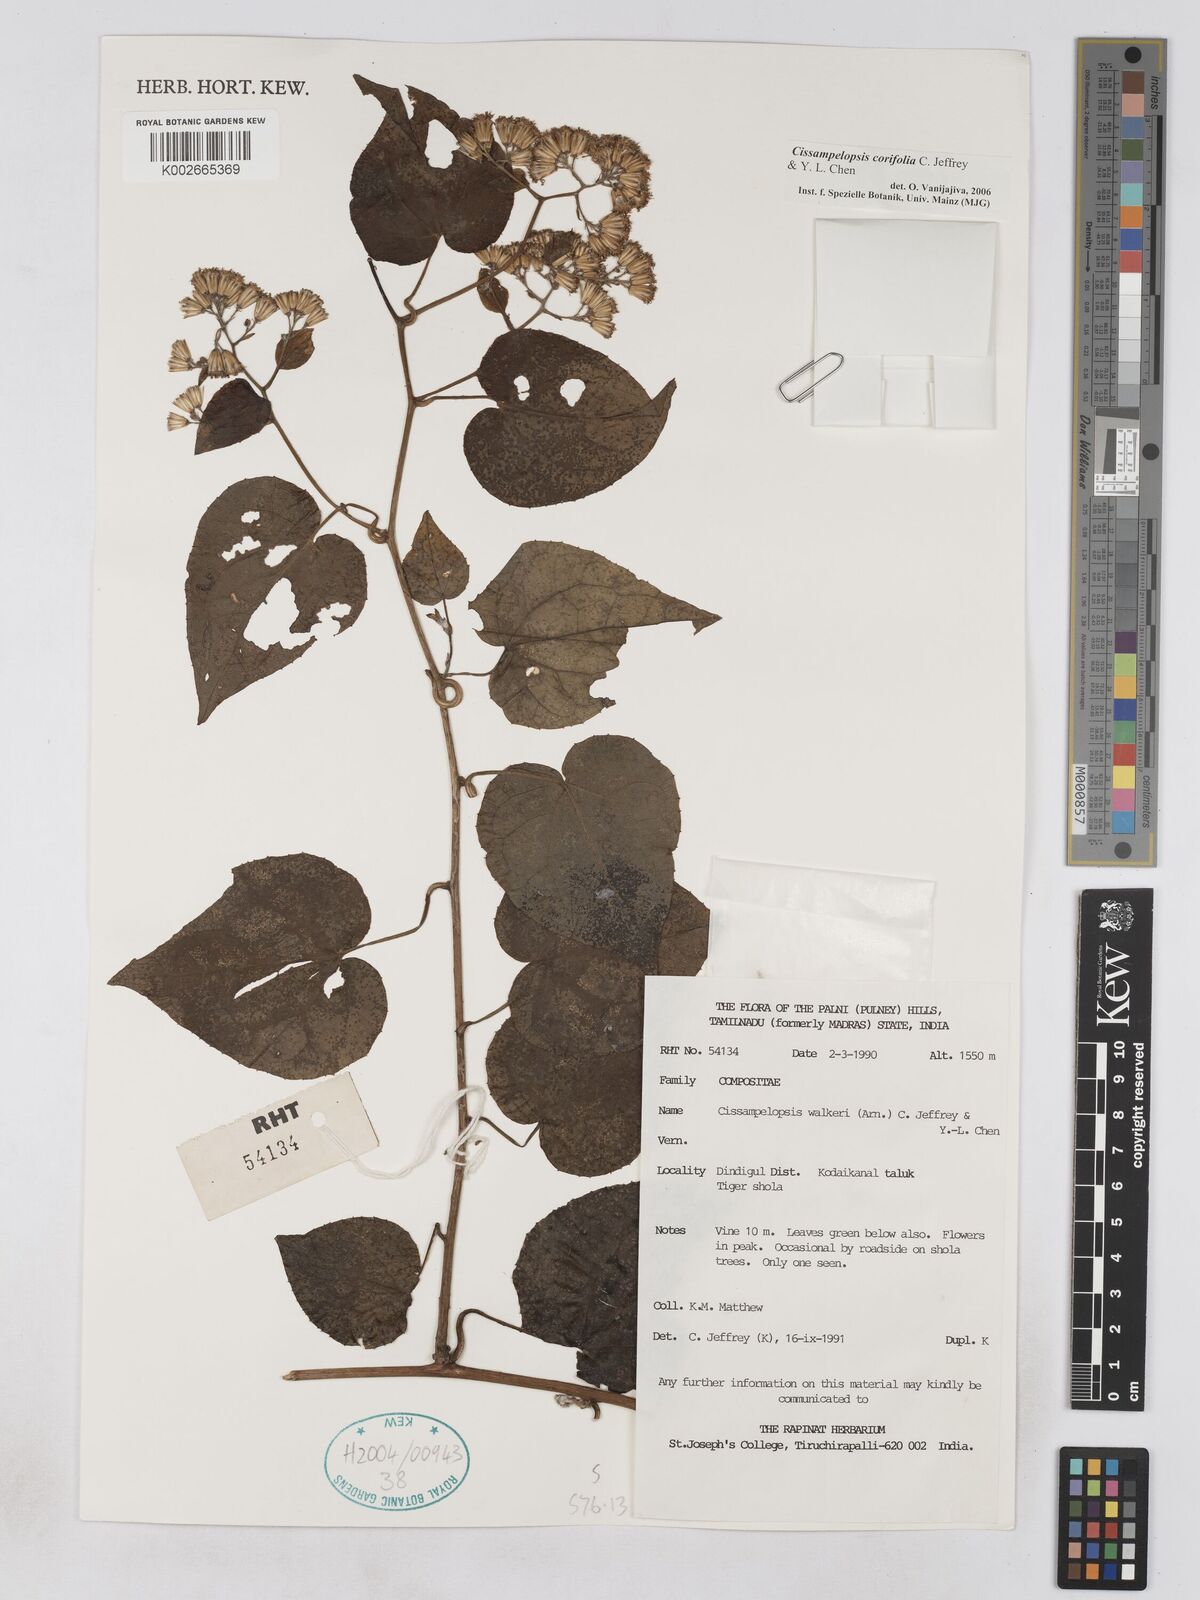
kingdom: Plantae
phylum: Tracheophyta
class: Magnoliopsida
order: Asterales
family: Asteraceae
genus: Cissampelopsis
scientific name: Cissampelopsis corifolia
